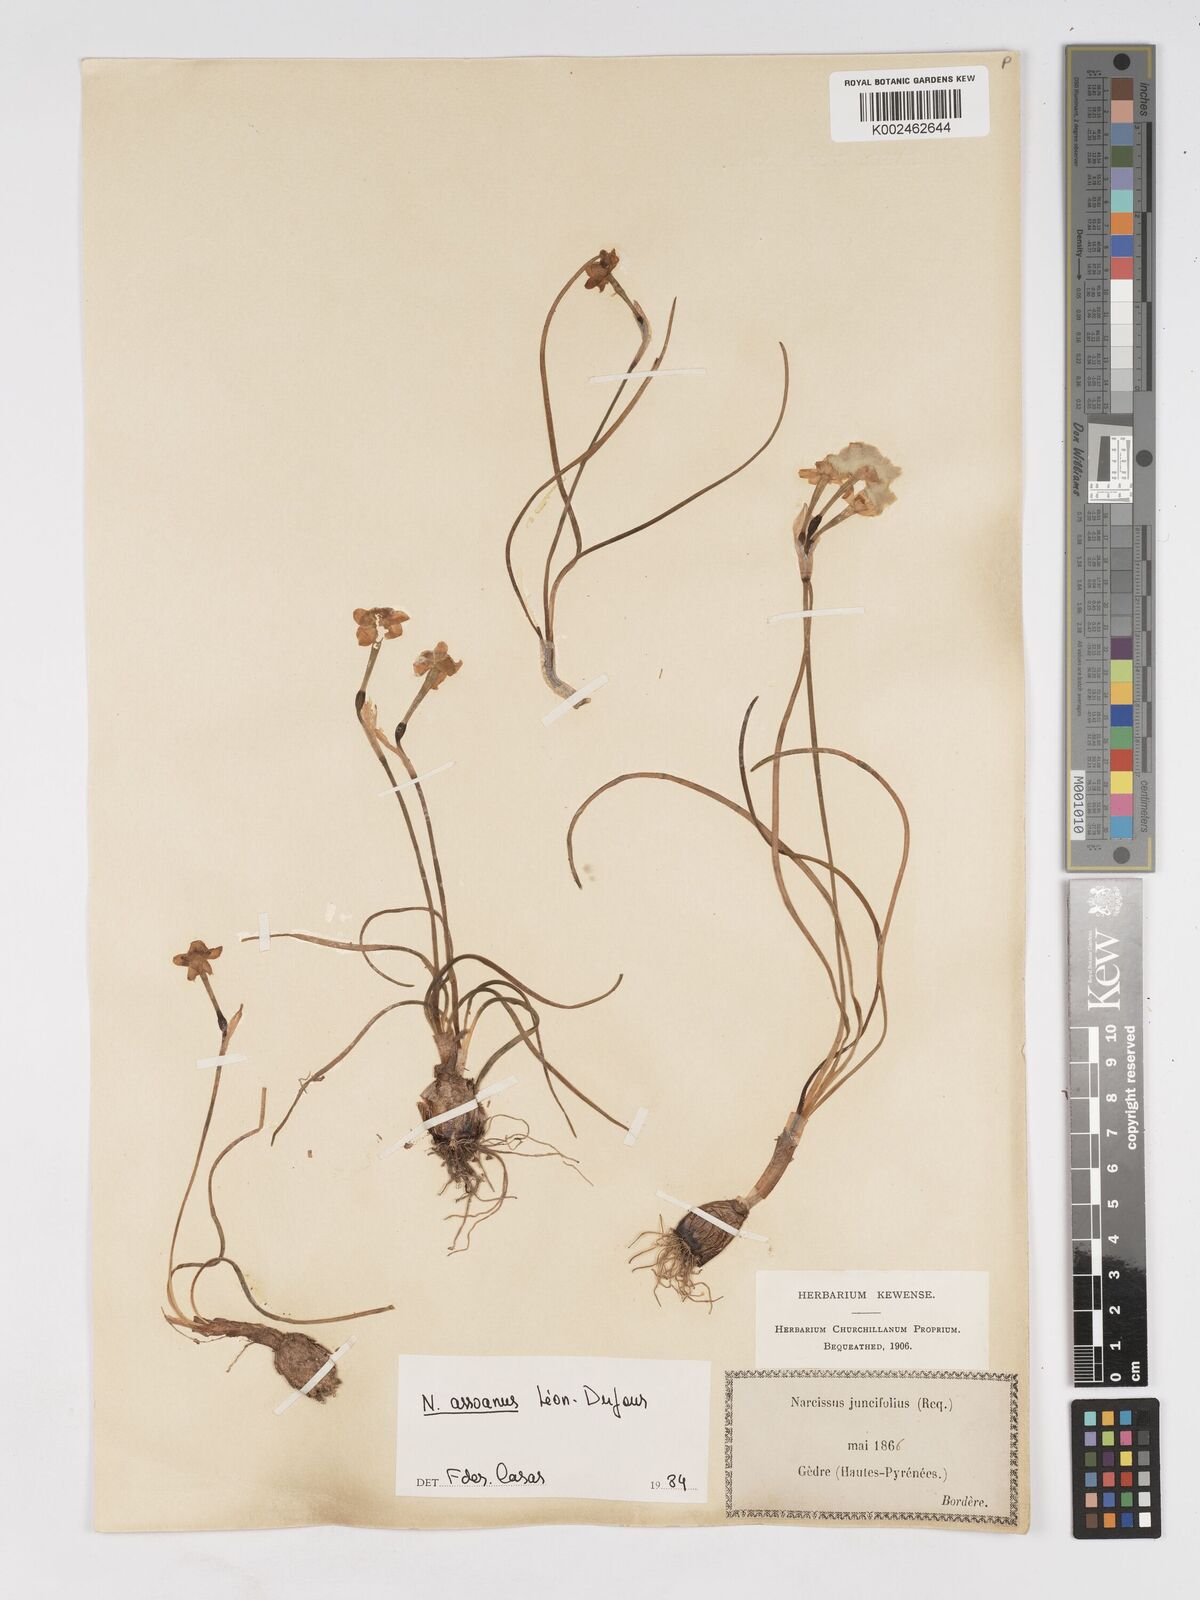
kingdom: Plantae
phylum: Tracheophyta
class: Liliopsida
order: Asparagales
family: Amaryllidaceae
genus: Narcissus
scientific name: Narcissus assoanus
